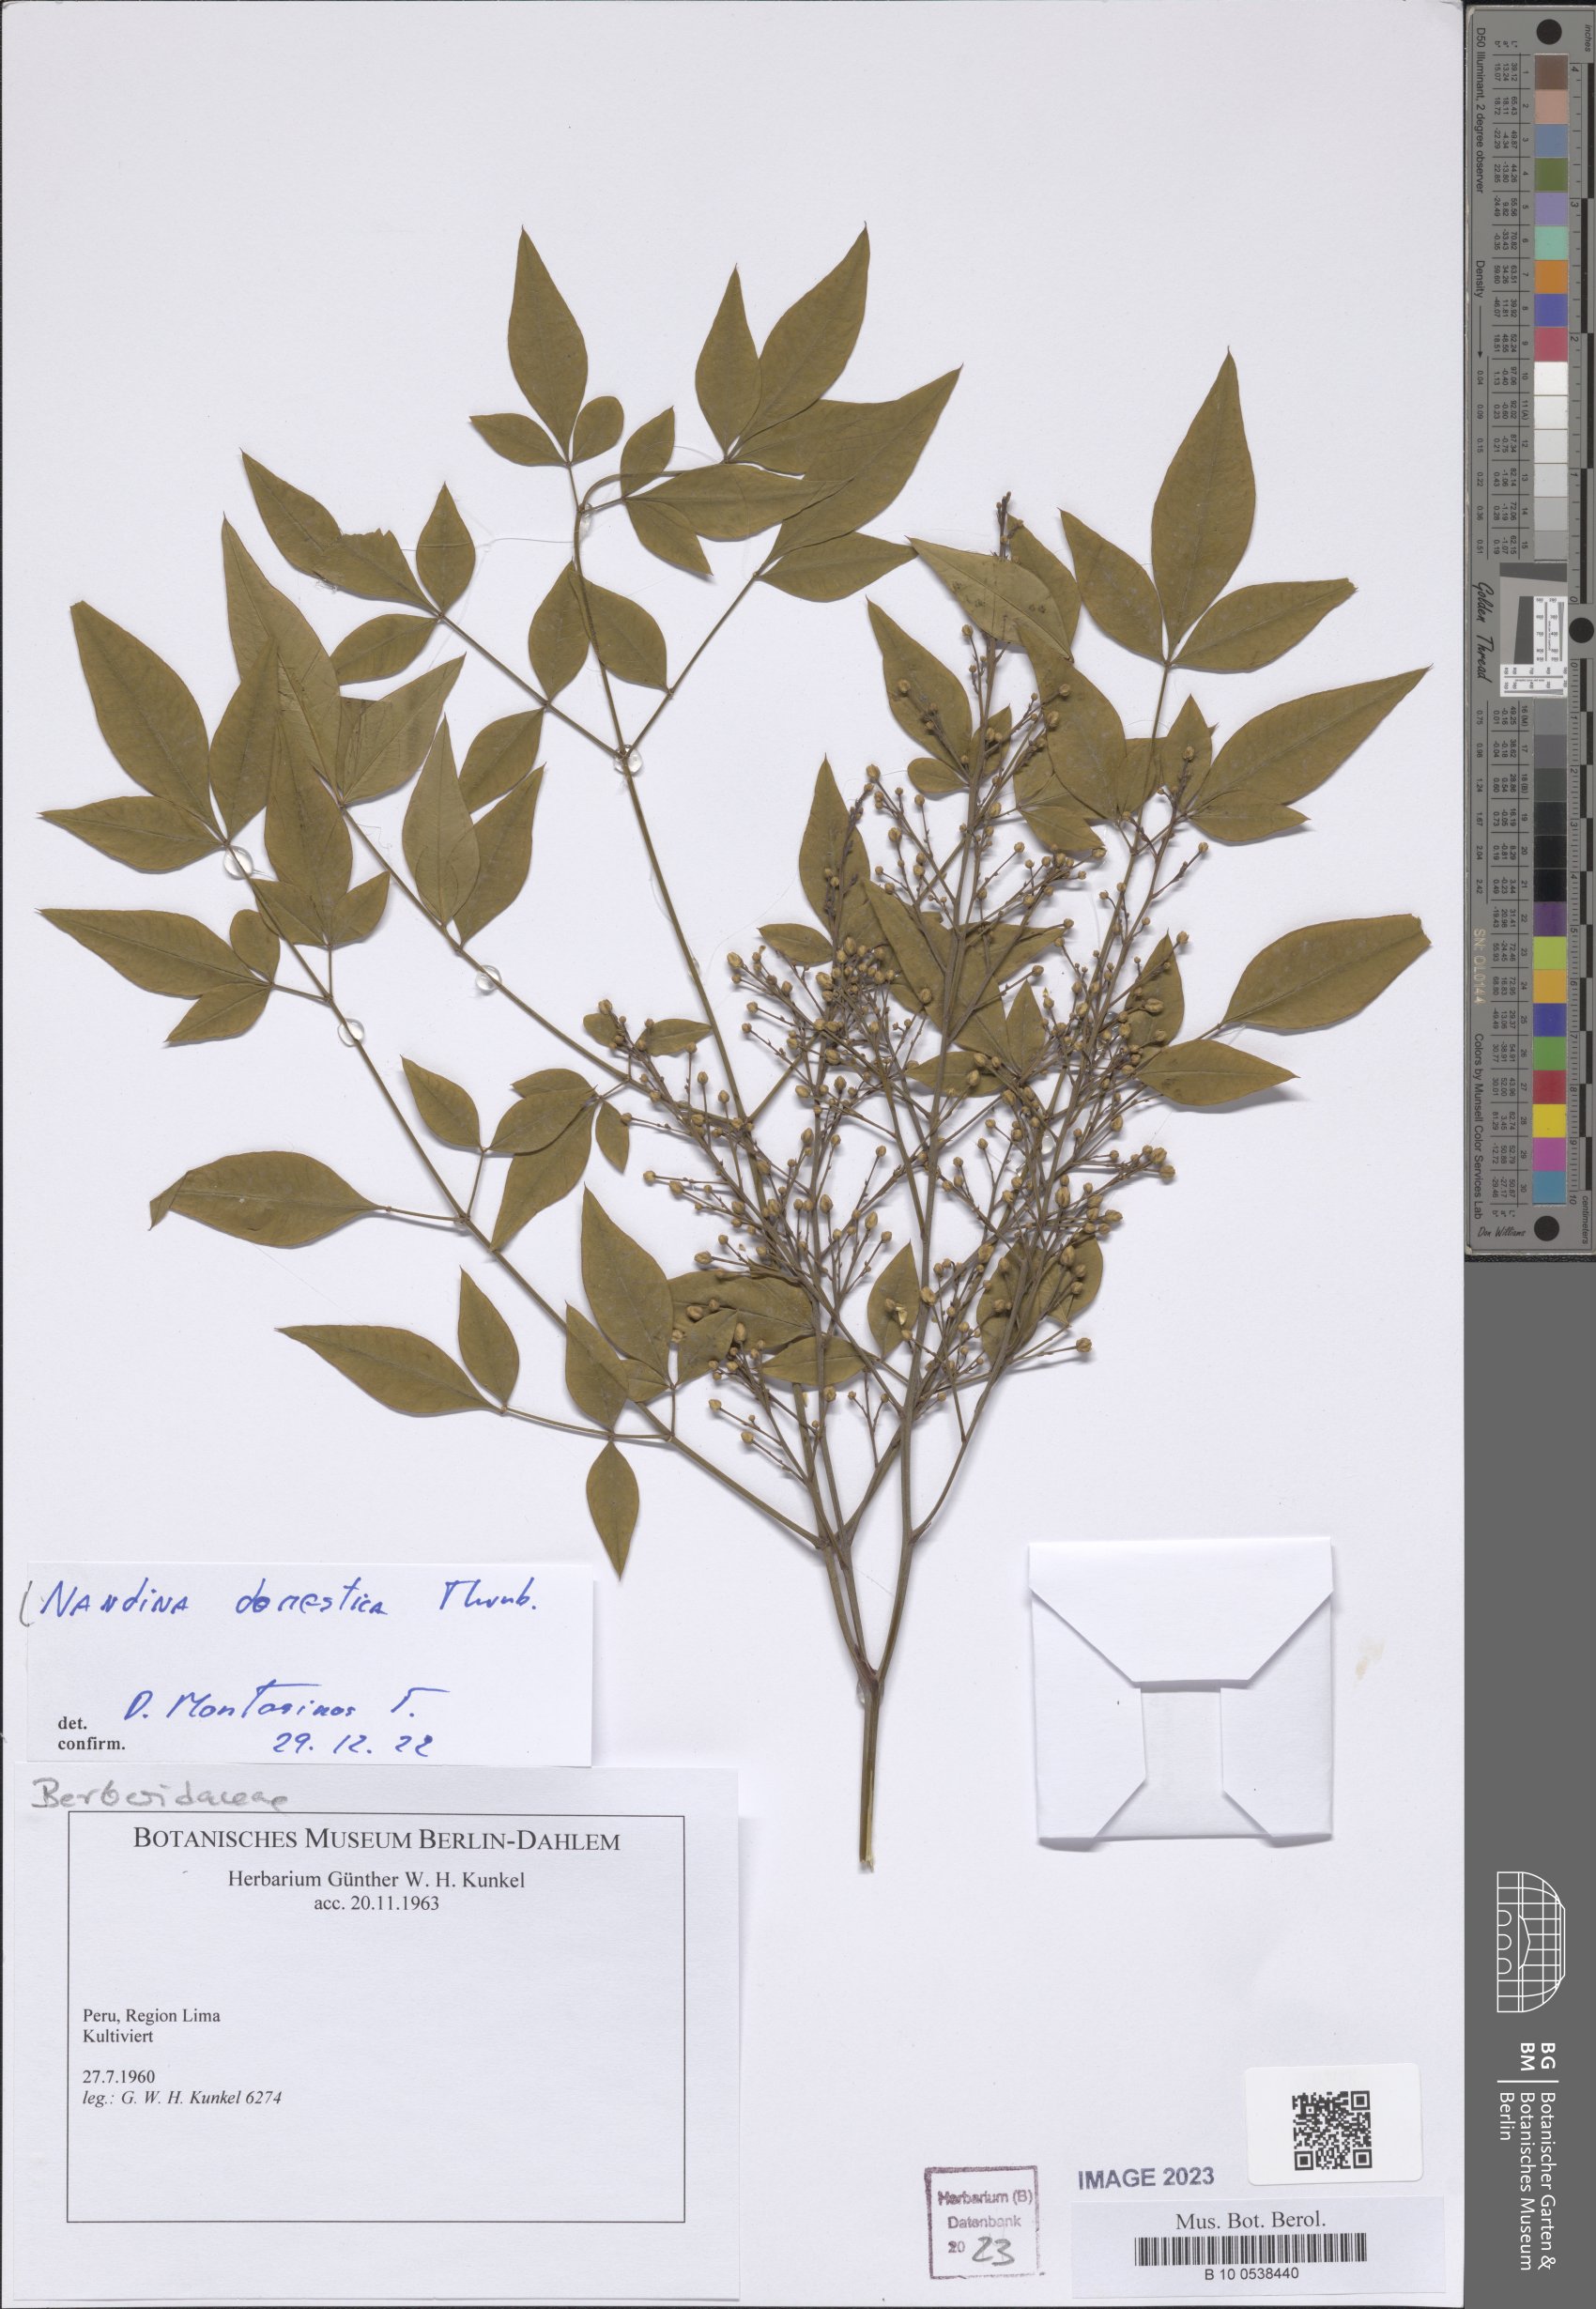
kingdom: Plantae
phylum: Tracheophyta
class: Magnoliopsida
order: Ranunculales
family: Berberidaceae
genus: Nandina
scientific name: Nandina domestica
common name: Sacred bamboo
